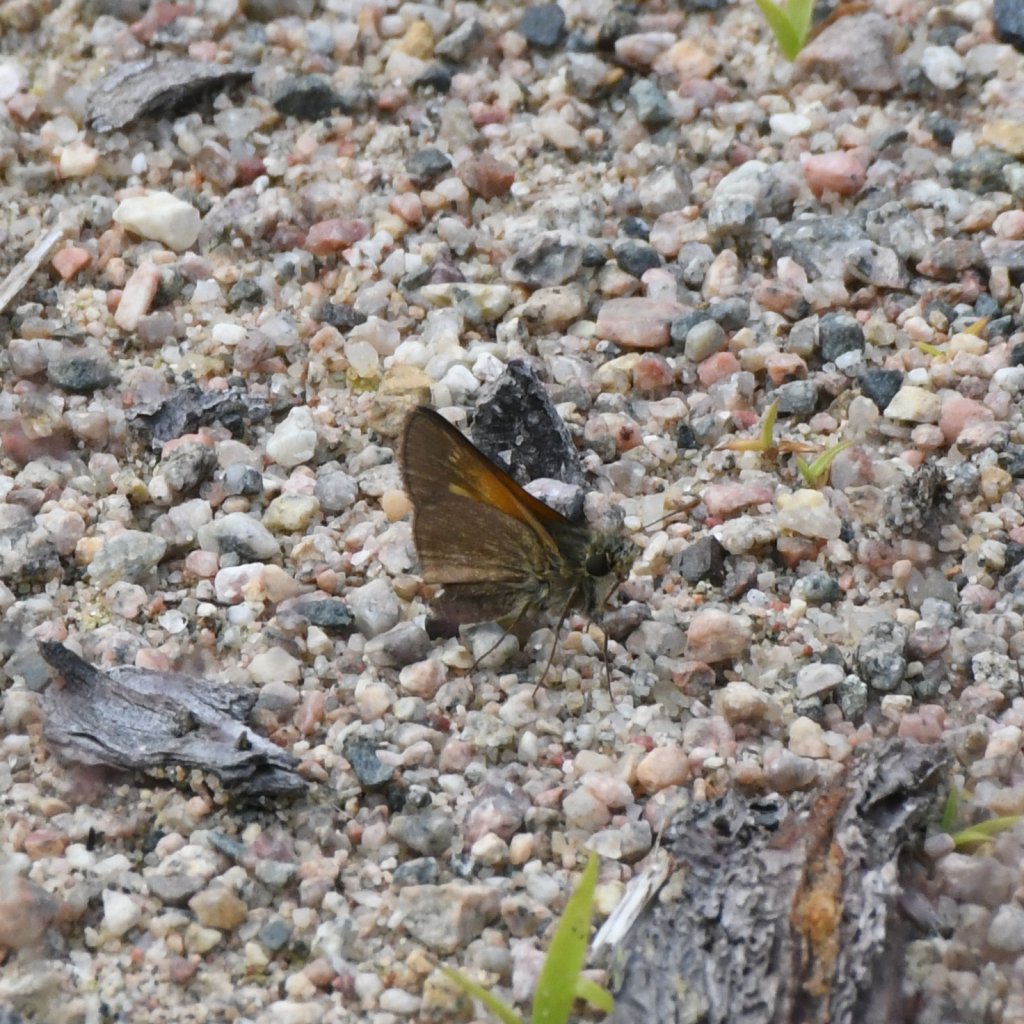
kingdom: Animalia
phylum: Arthropoda
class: Insecta
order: Lepidoptera
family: Hesperiidae
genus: Polites
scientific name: Polites themistocles
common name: Tawny-edged Skipper
